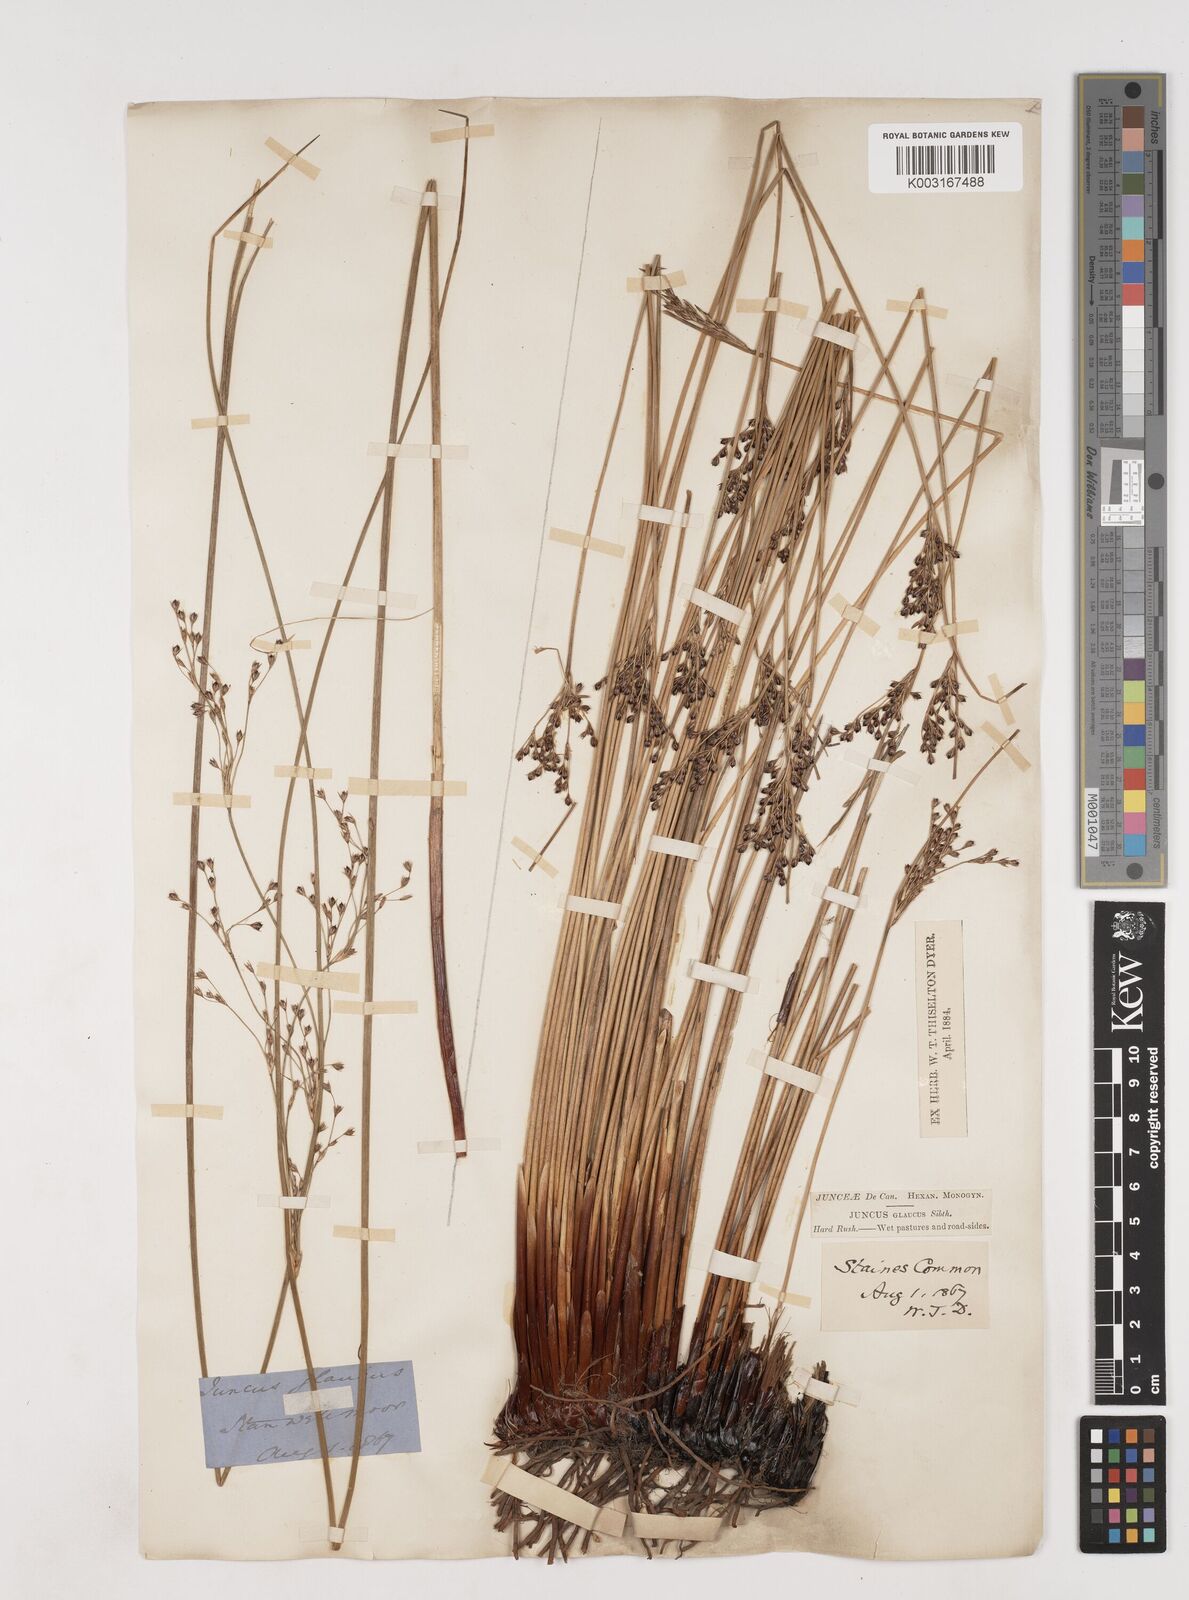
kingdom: Plantae
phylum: Tracheophyta
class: Liliopsida
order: Poales
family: Juncaceae
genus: Juncus
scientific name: Juncus inflexus
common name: Hard rush
